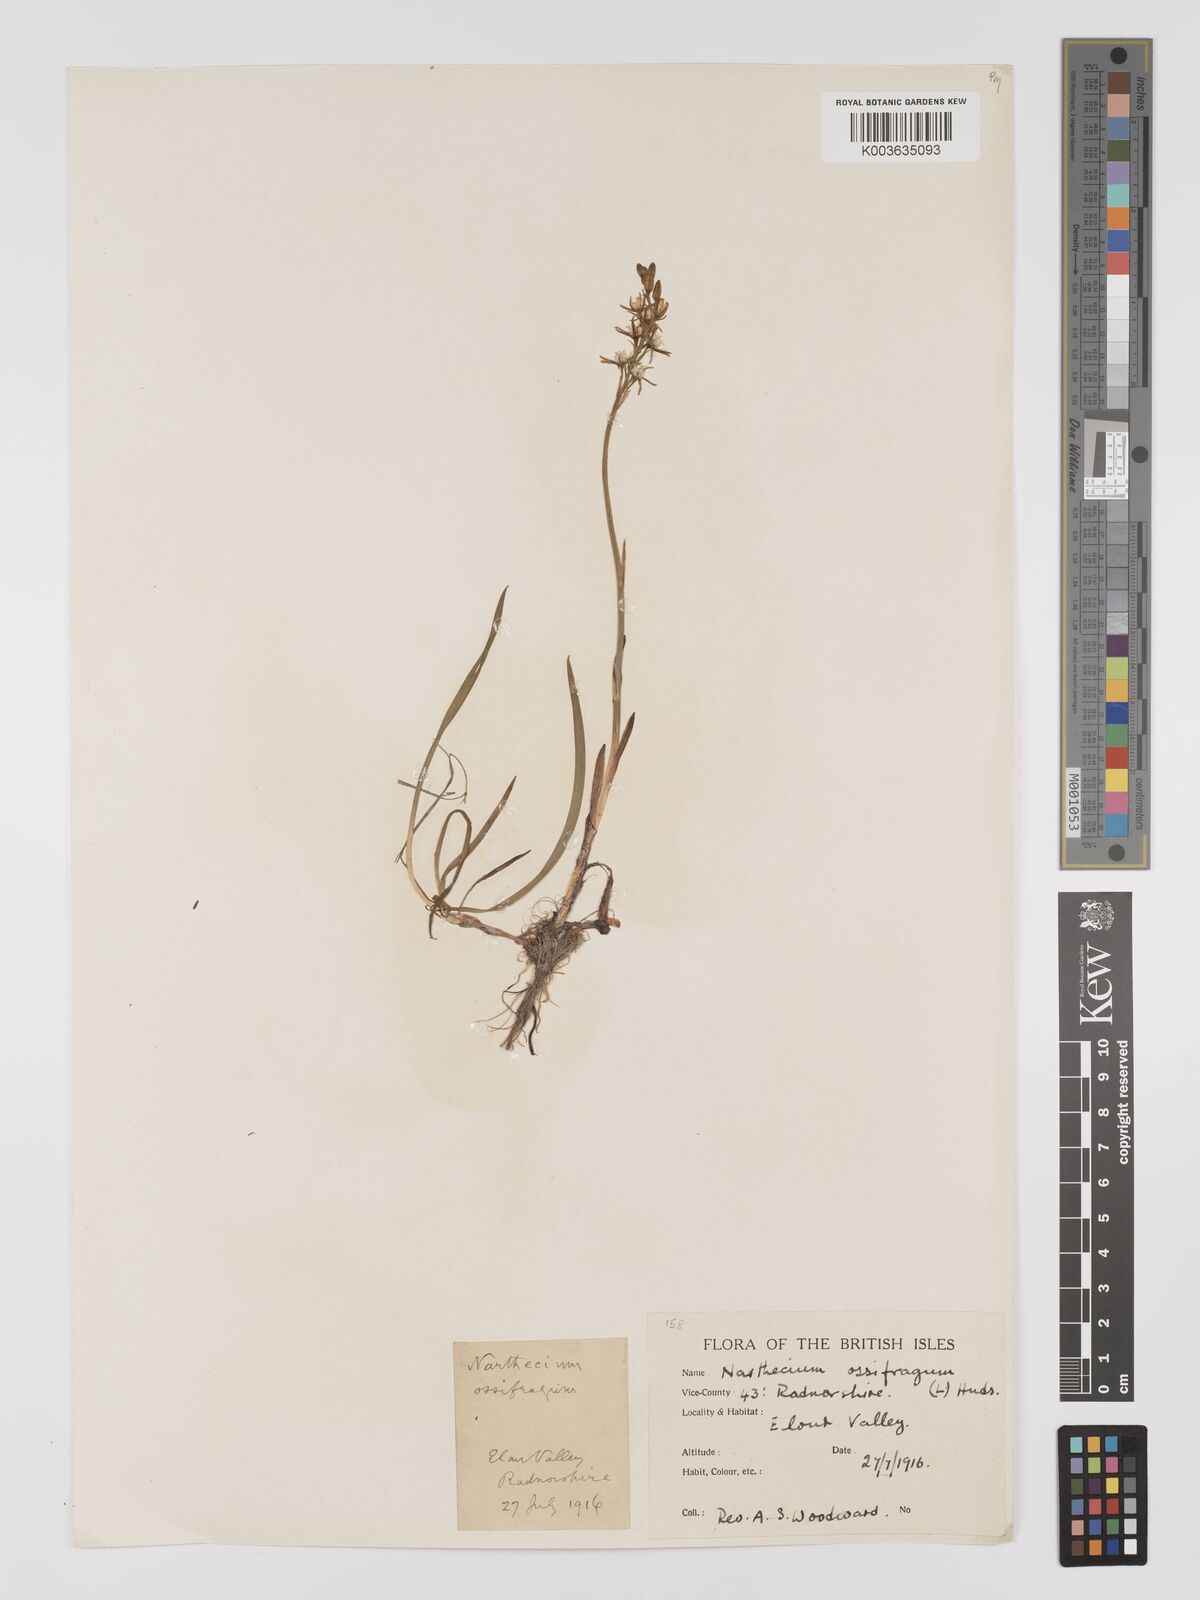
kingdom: Plantae
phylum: Tracheophyta
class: Liliopsida
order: Dioscoreales
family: Nartheciaceae
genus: Narthecium
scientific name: Narthecium
